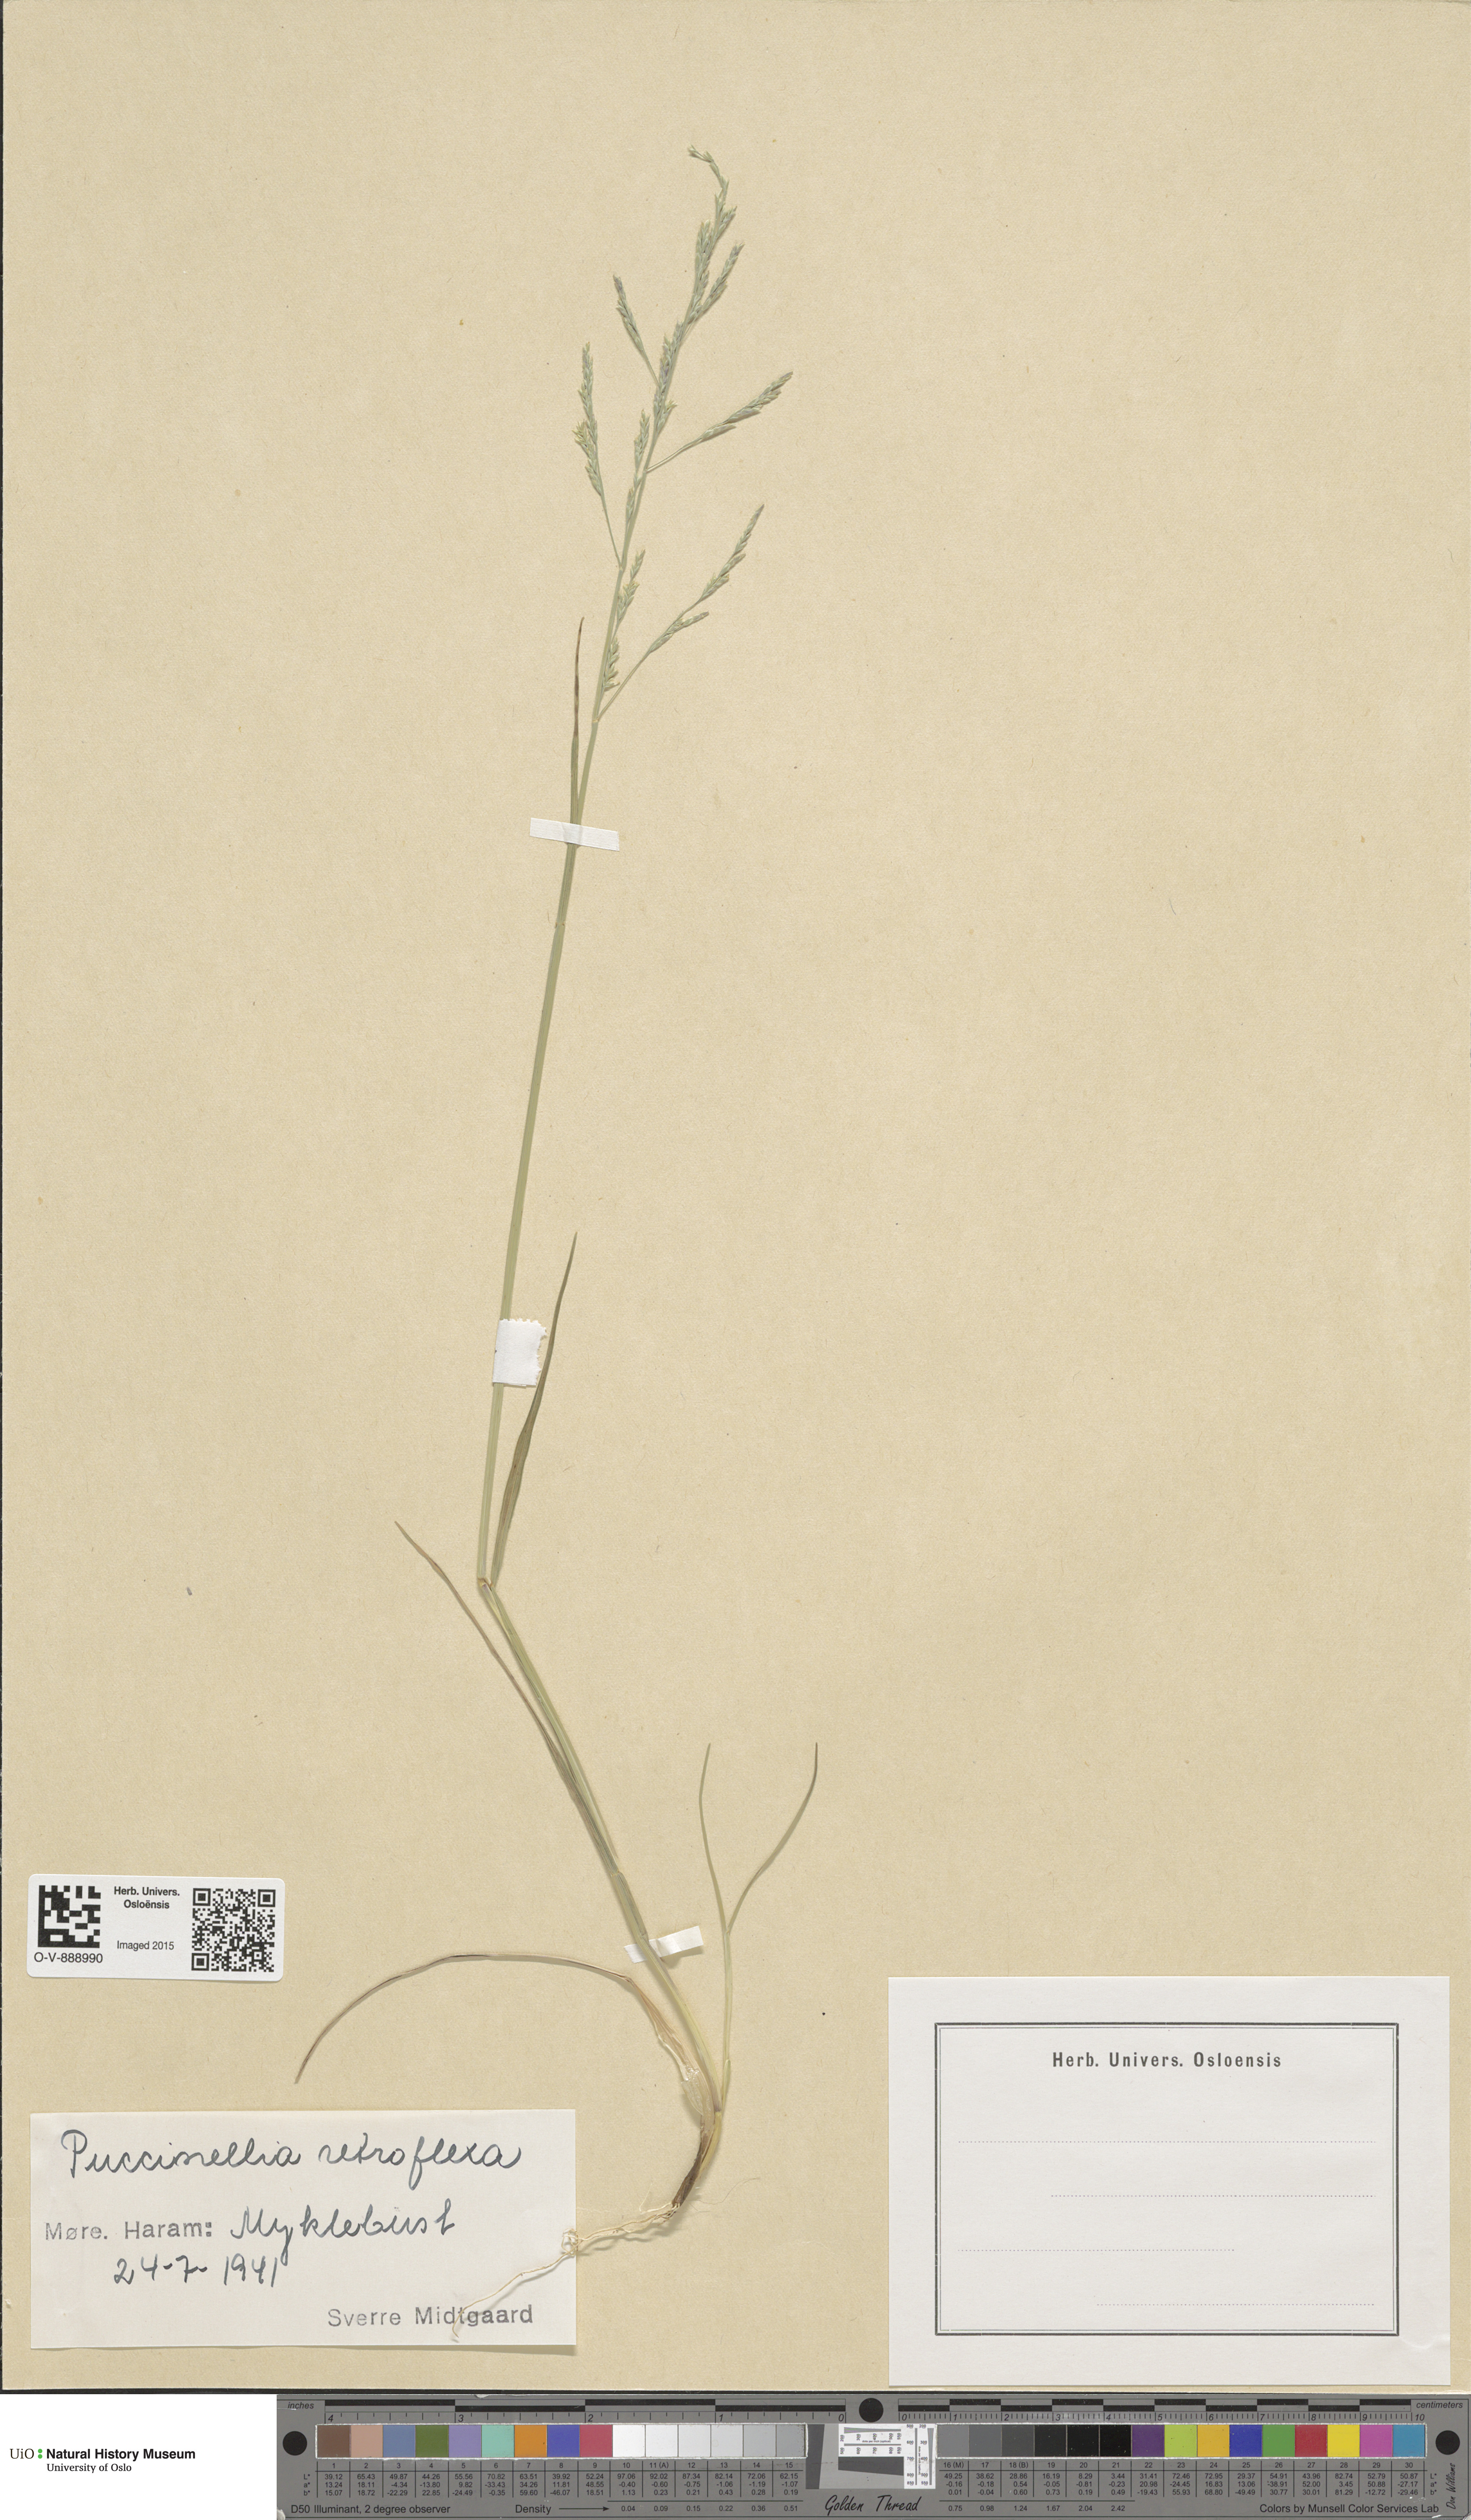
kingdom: Plantae
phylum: Tracheophyta
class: Liliopsida
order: Poales
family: Poaceae
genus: Puccinellia
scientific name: Puccinellia distans
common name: Weeping alkaligrass
